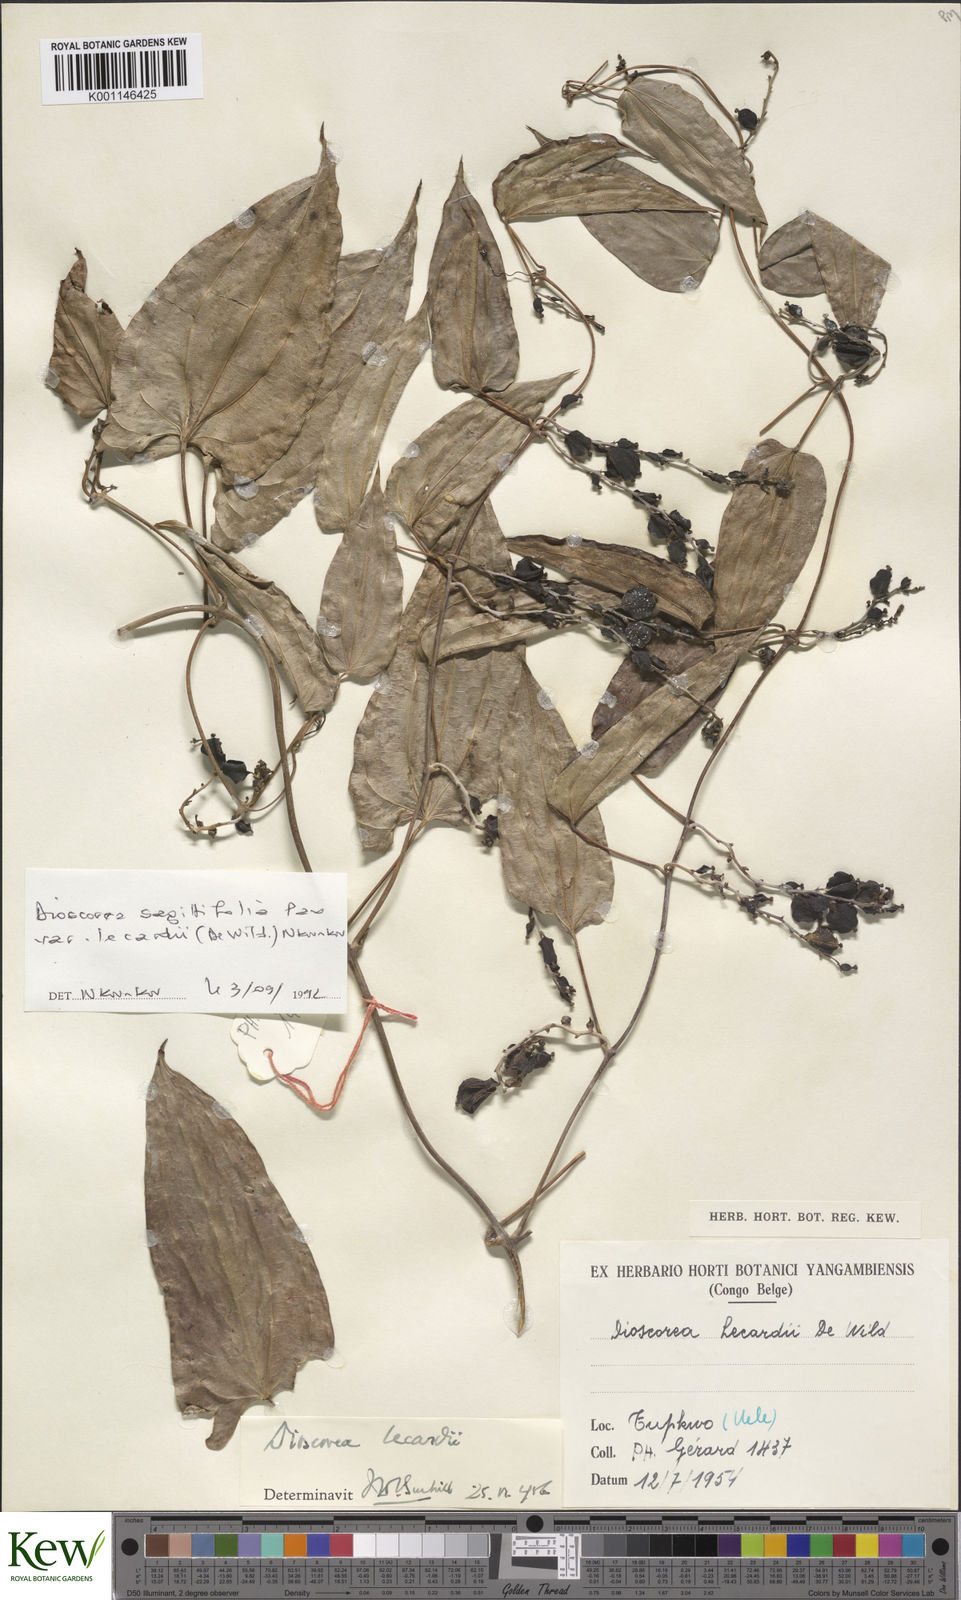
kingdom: Plantae
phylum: Tracheophyta
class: Liliopsida
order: Dioscoreales
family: Dioscoreaceae
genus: Dioscorea
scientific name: Dioscorea sagittifolia
